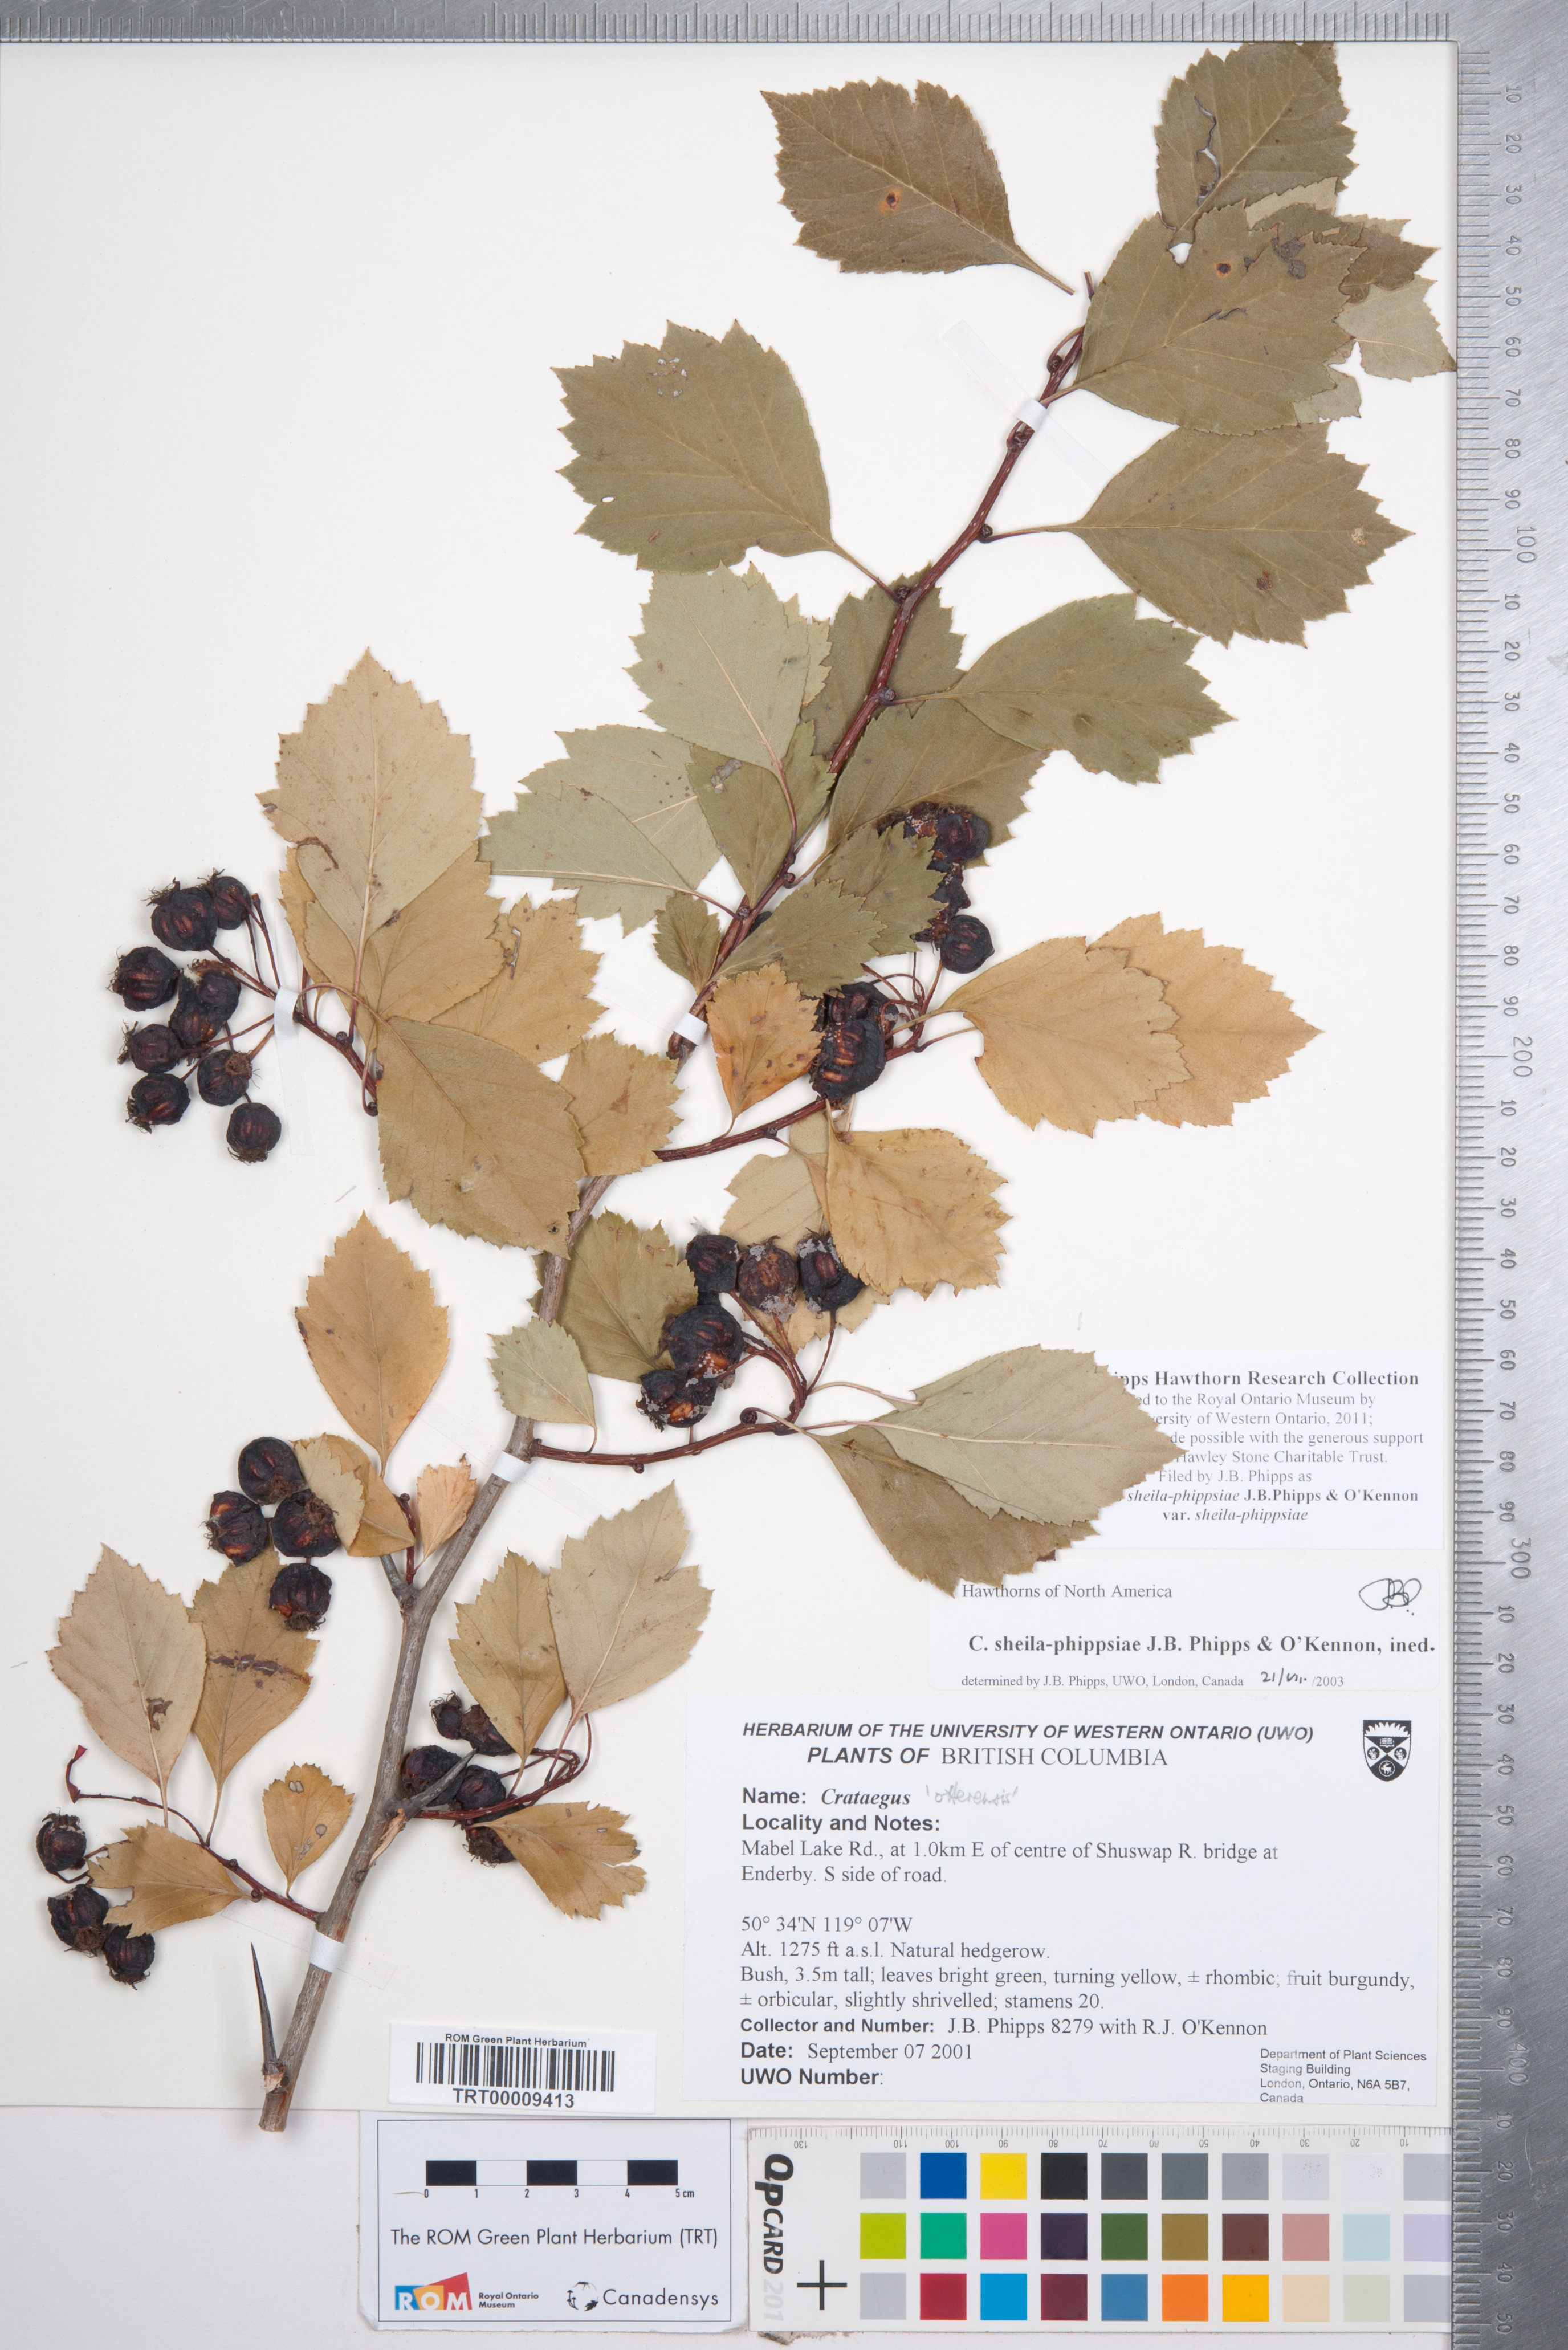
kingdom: Plantae
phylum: Tracheophyta
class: Magnoliopsida
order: Rosales
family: Rosaceae
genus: Crataegus
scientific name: Crataegus sheila-phippsiae
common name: Sheila phipps' hawthorn
